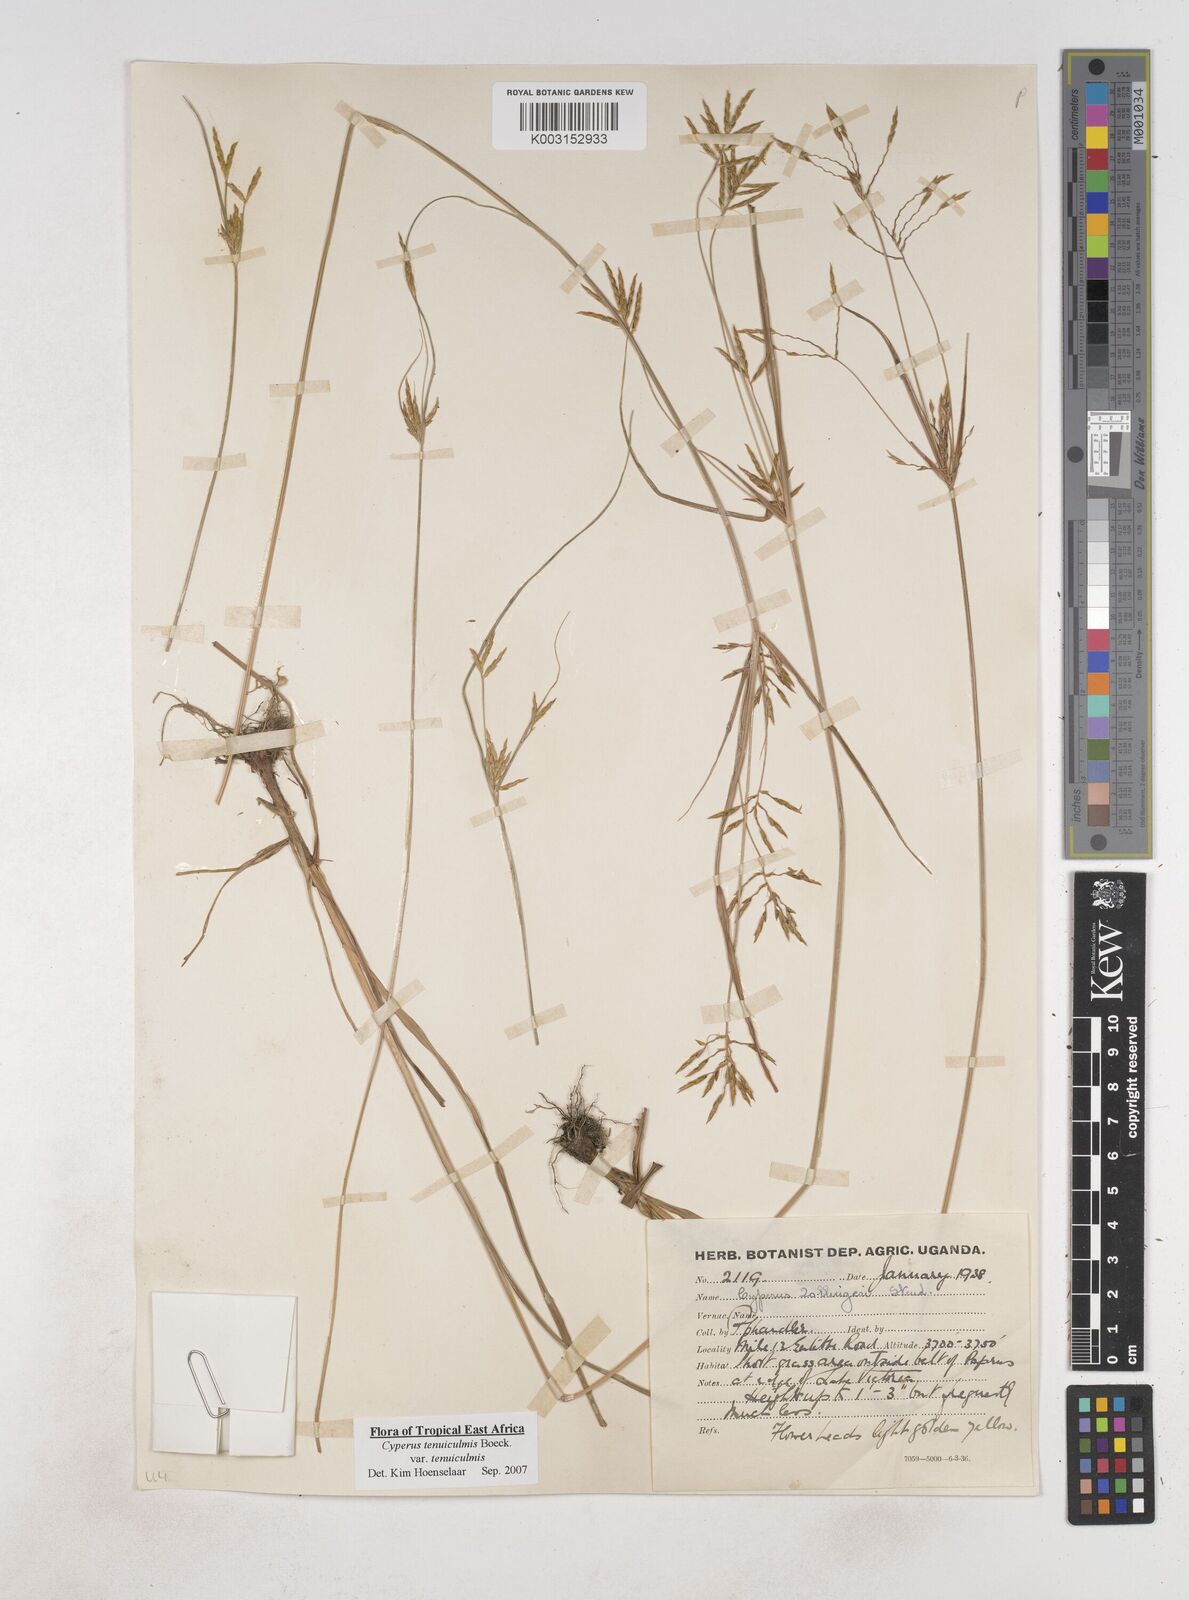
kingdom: Plantae
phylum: Tracheophyta
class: Liliopsida
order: Poales
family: Cyperaceae
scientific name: Cyperaceae
